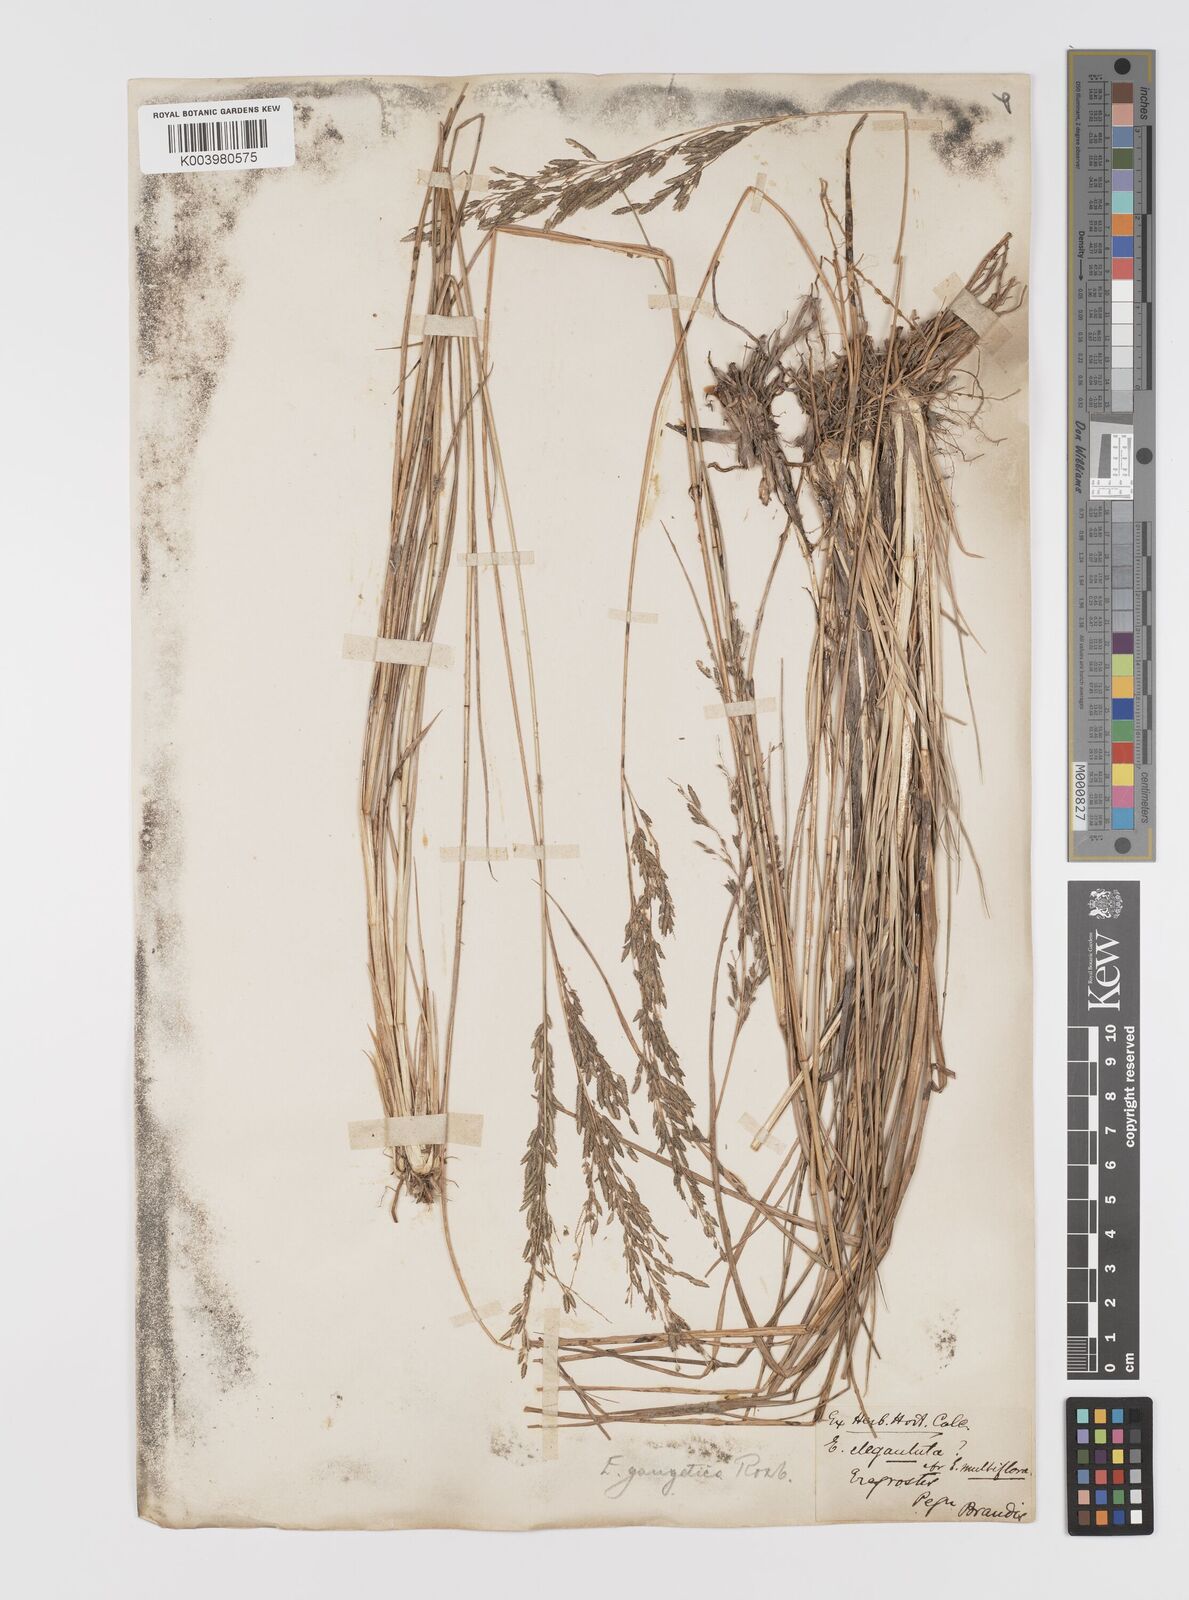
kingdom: Plantae
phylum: Tracheophyta
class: Liliopsida
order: Poales
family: Poaceae
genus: Eragrostis
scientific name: Eragrostis atrovirens
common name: Thalia lovegrass
